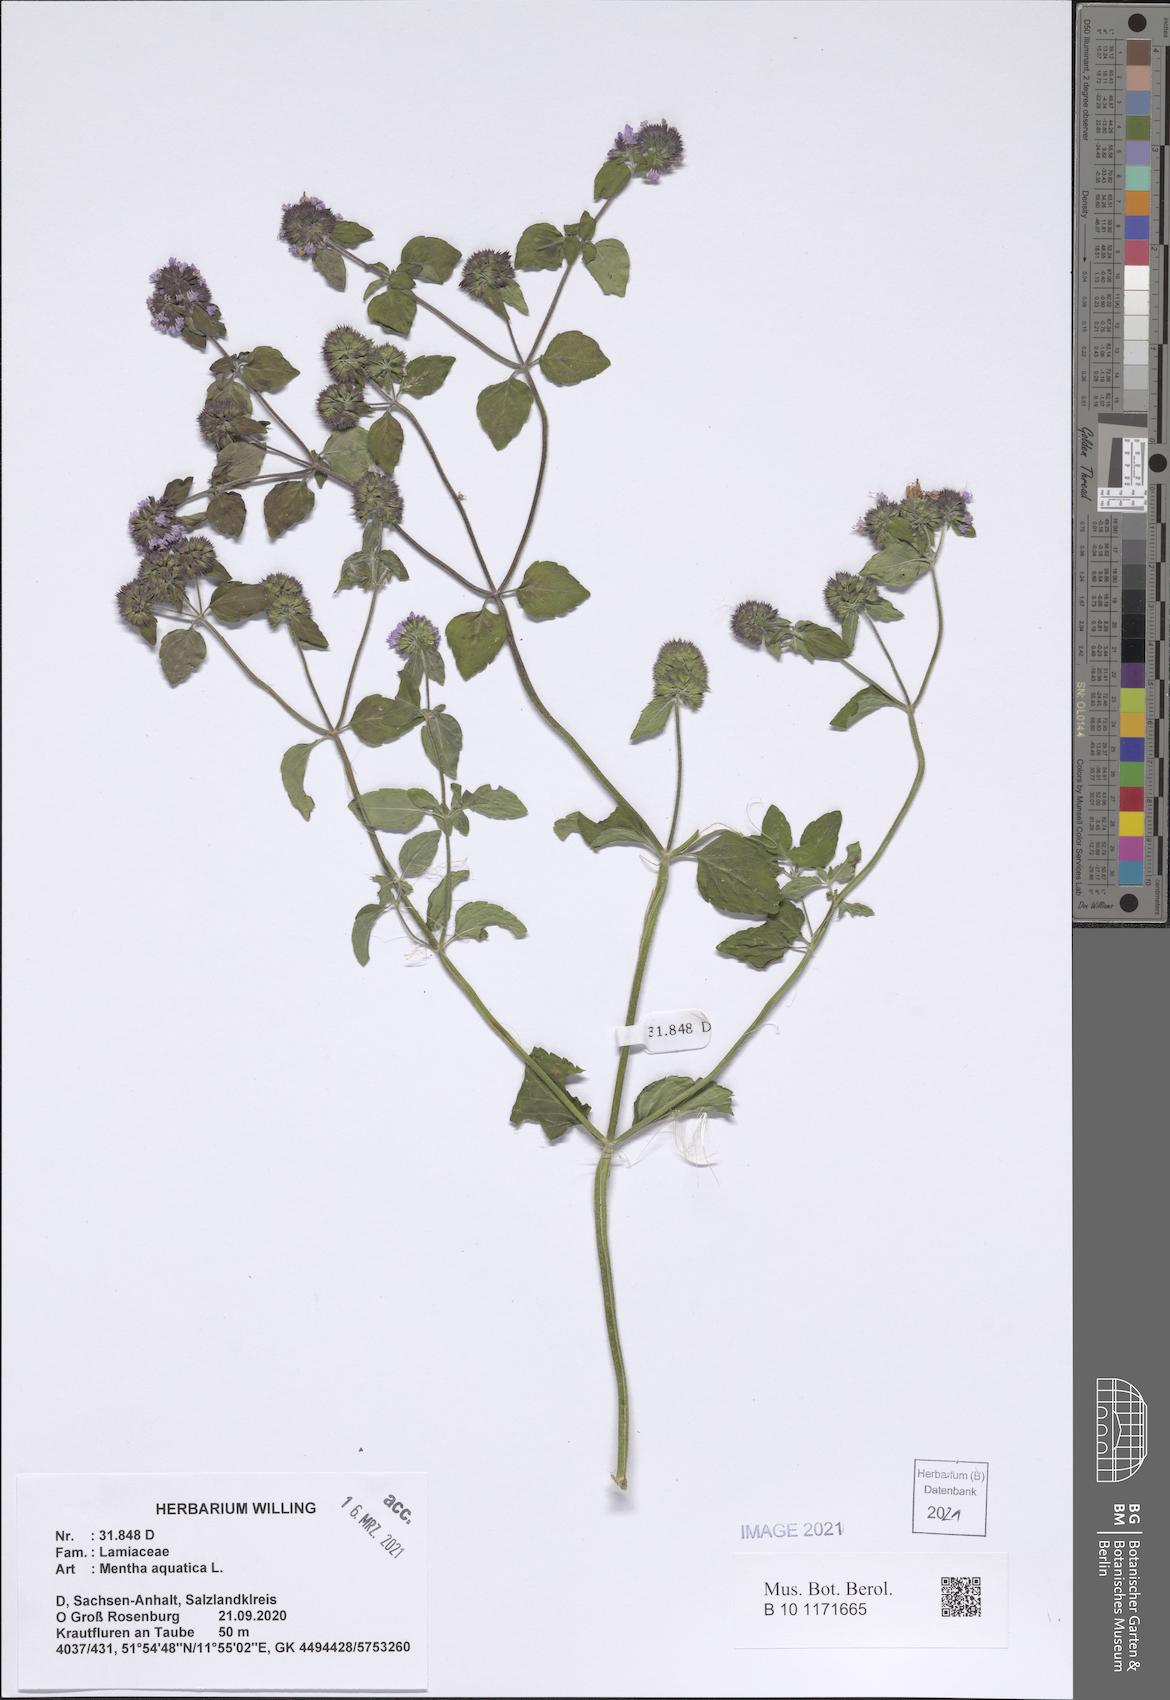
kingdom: Plantae
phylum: Tracheophyta
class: Magnoliopsida
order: Lamiales
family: Lamiaceae
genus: Mentha
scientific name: Mentha aquatica
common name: Water mint
